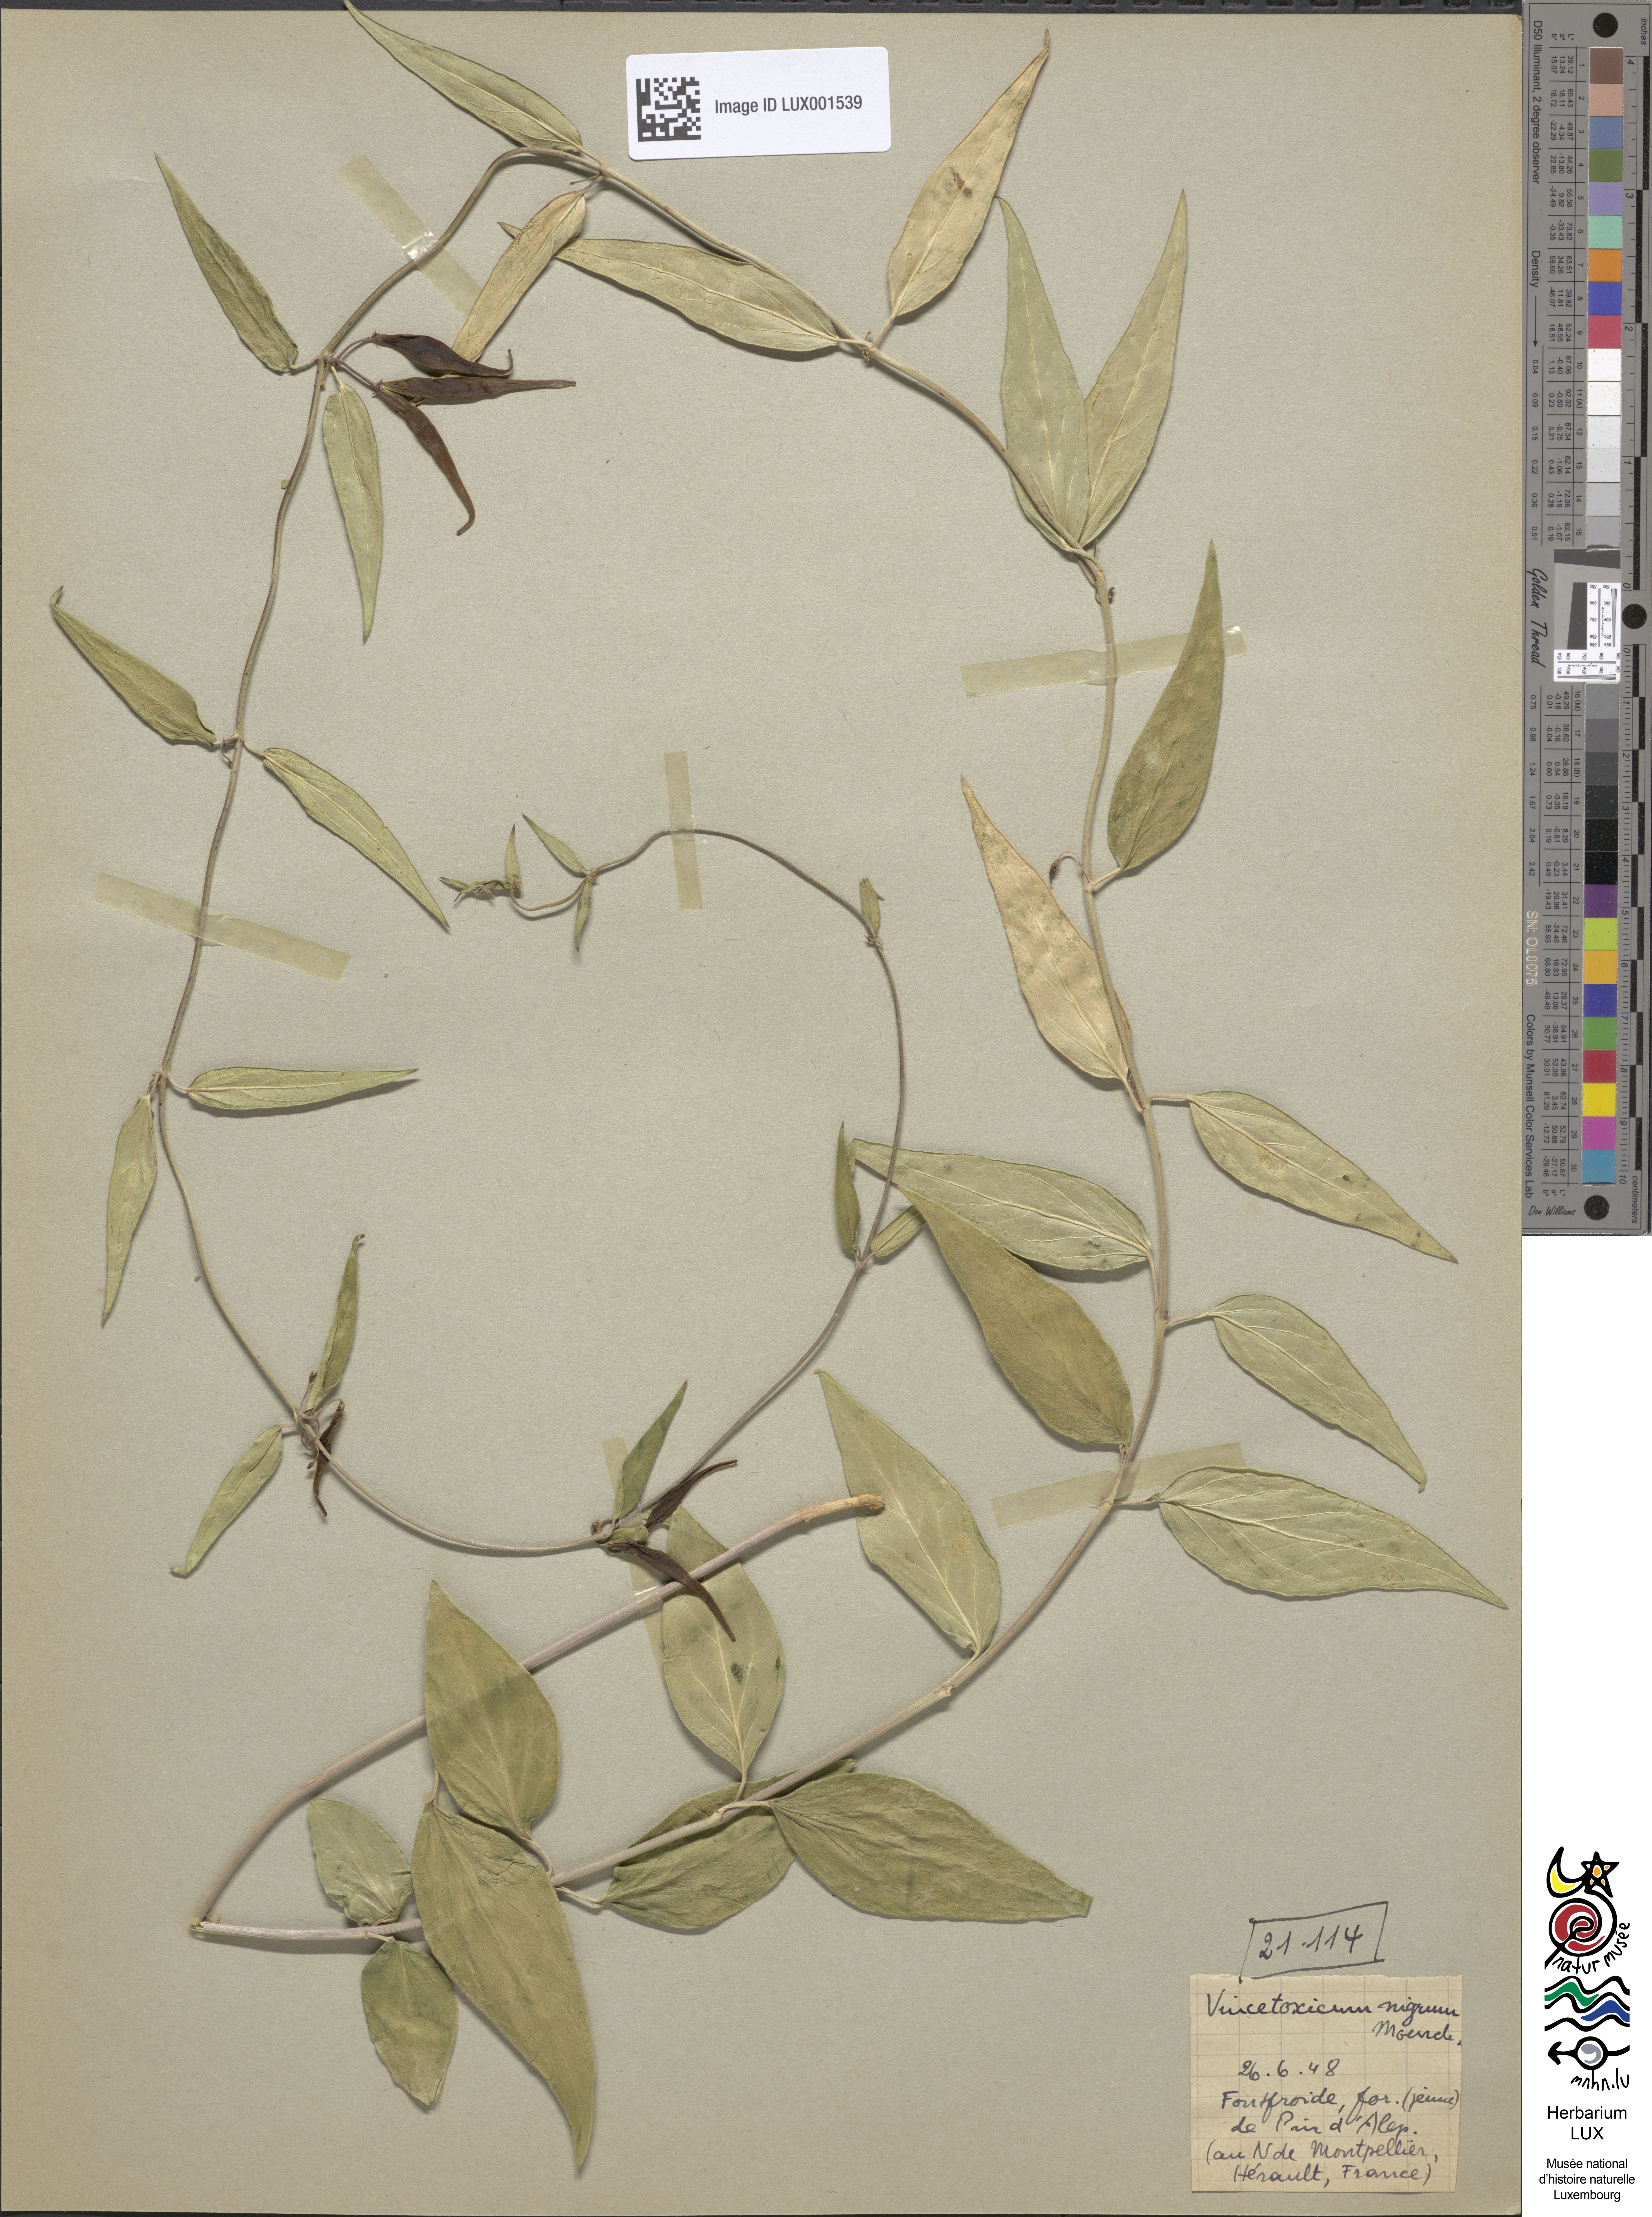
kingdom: Plantae
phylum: Tracheophyta
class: Magnoliopsida
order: Gentianales
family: Apocynaceae
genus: Vincetoxicum
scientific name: Vincetoxicum nigrum
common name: Black swallow-wort
